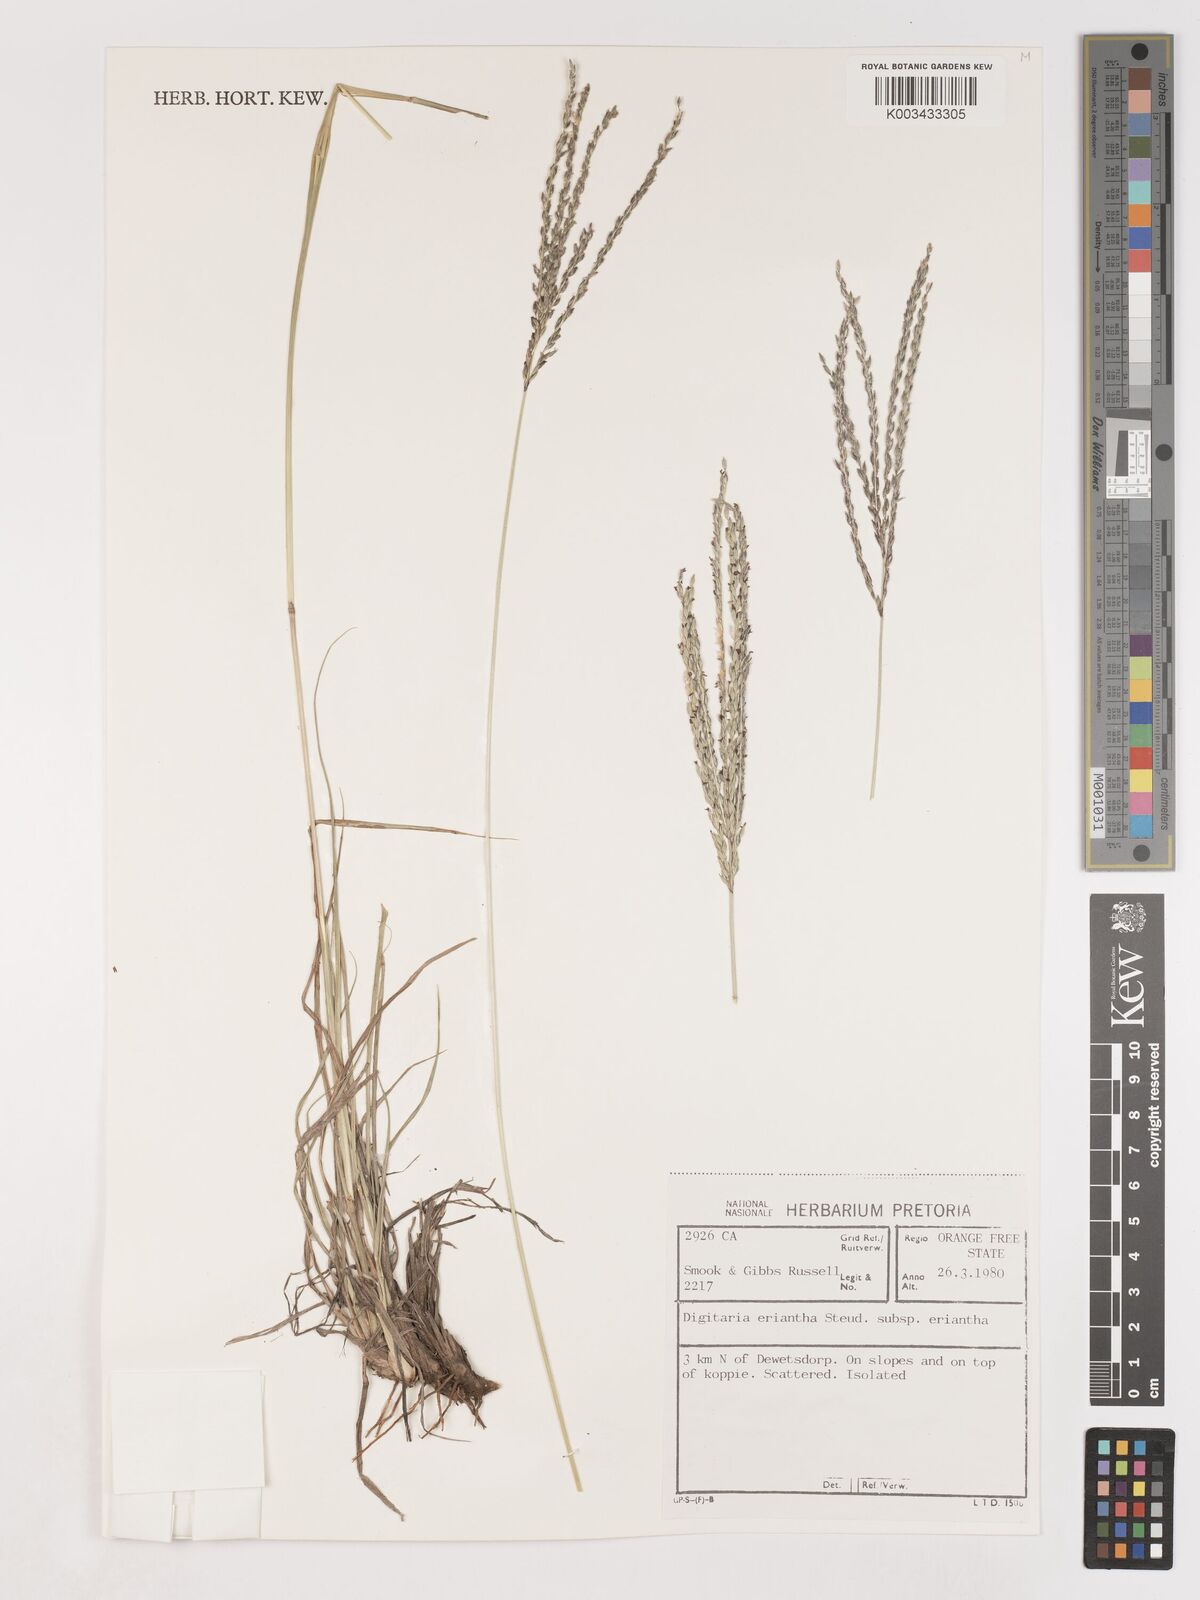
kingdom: Plantae
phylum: Tracheophyta
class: Liliopsida
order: Poales
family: Poaceae
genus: Digitaria
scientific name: Digitaria eriantha
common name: Digitgrass
